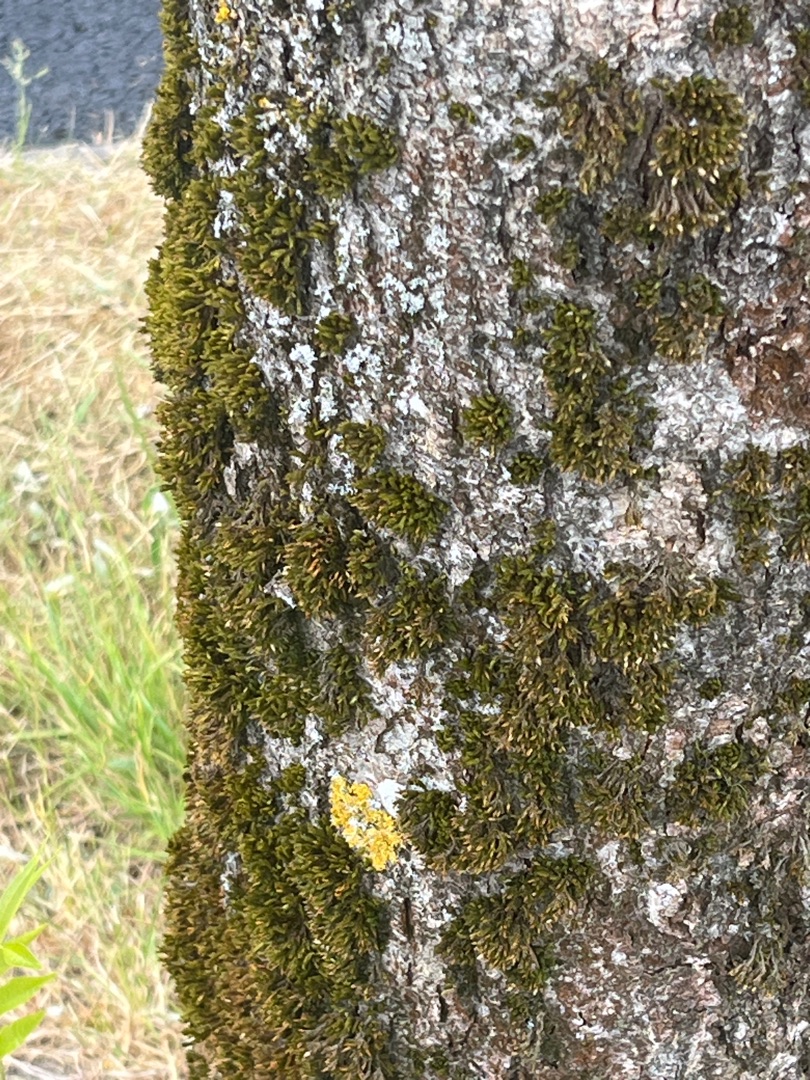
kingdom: Plantae
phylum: Bryophyta
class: Bryopsida
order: Orthotrichales
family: Orthotrichaceae
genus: Orthotrichum
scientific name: Orthotrichum
